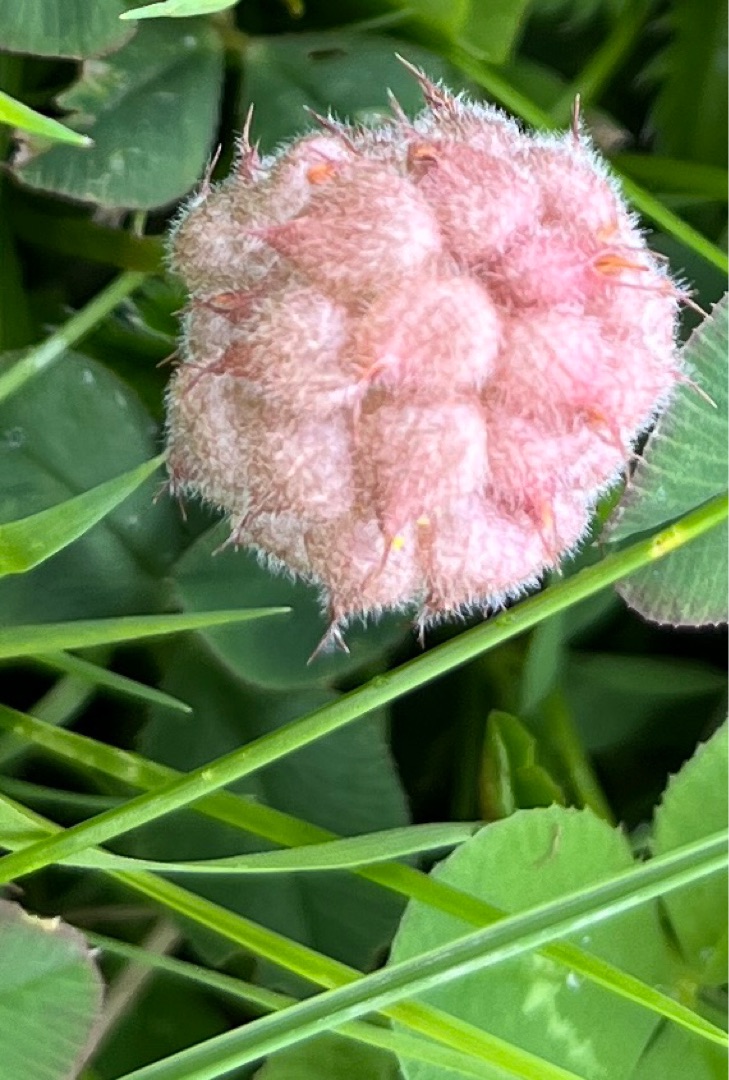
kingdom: Plantae
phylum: Tracheophyta
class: Magnoliopsida
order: Fabales
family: Fabaceae
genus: Trifolium
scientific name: Trifolium fragiferum
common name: Jordbær-kløver
